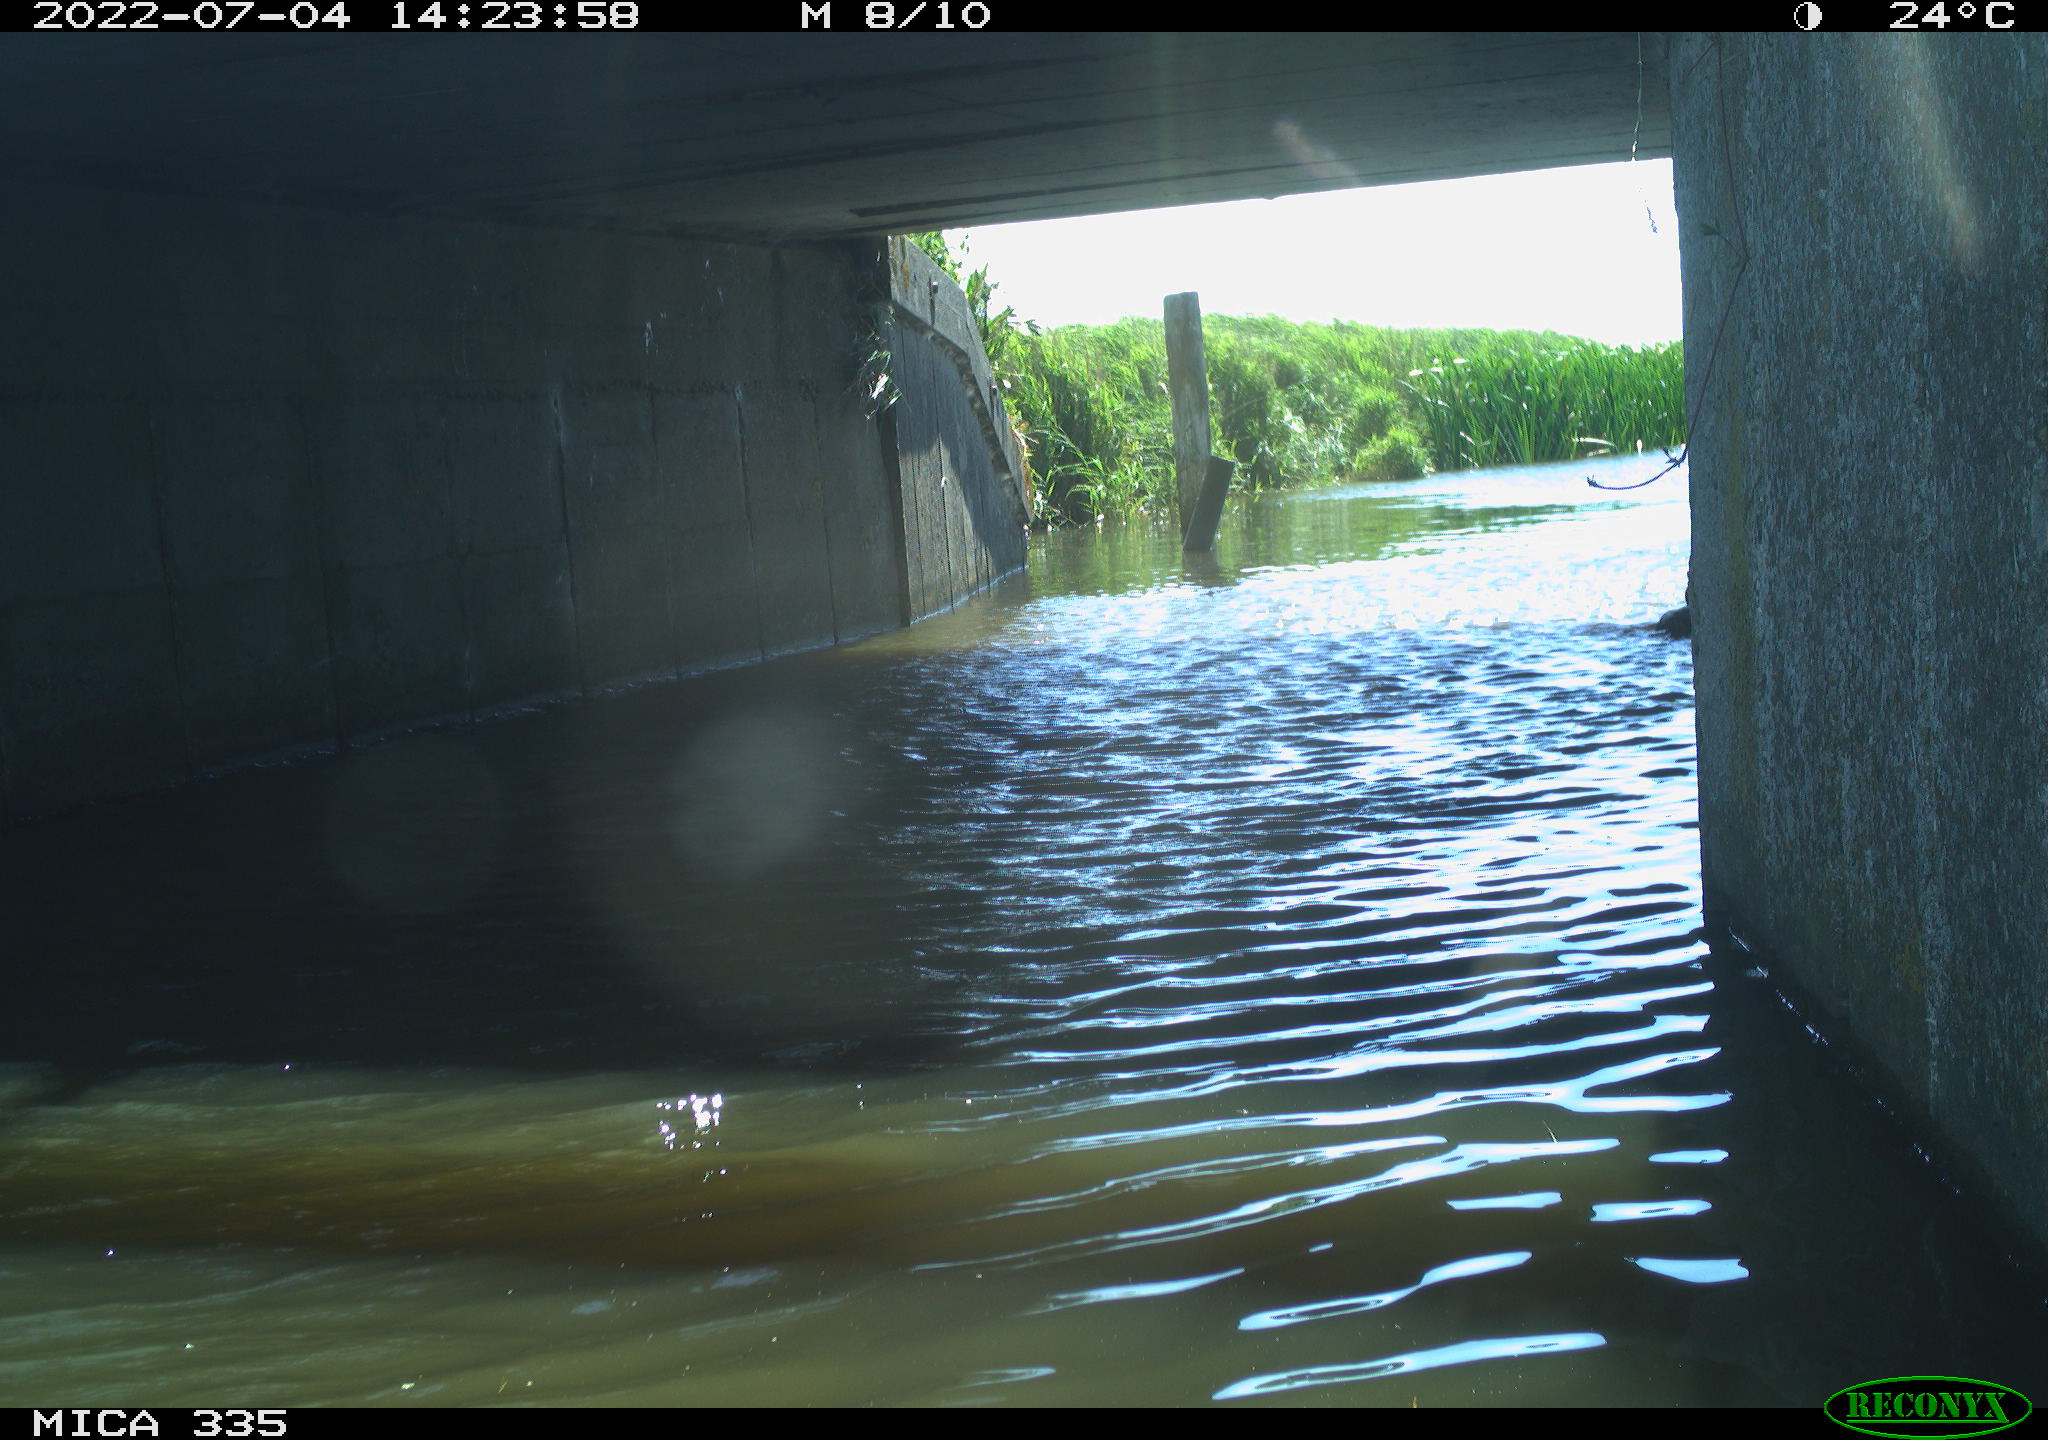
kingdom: Animalia
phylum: Chordata
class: Aves
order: Anseriformes
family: Anatidae
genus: Anas
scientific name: Anas platyrhynchos
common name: Mallard
